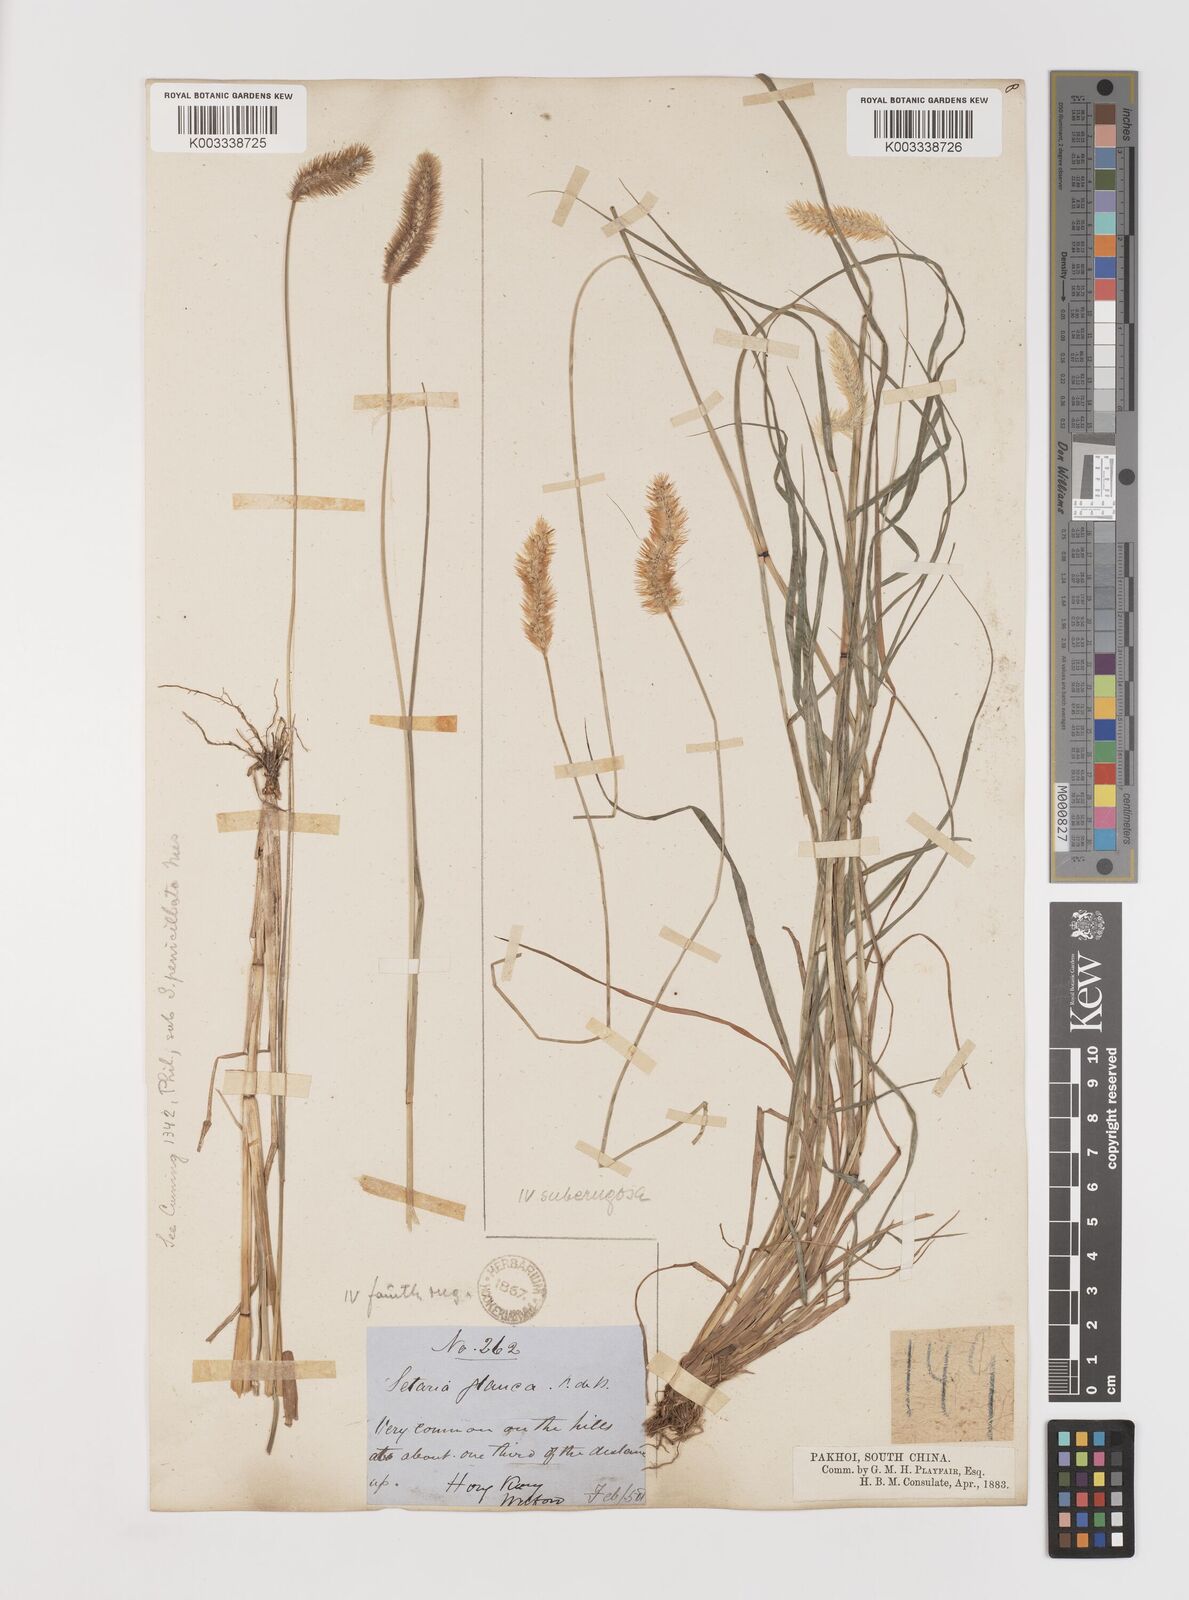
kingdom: Plantae
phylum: Tracheophyta
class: Liliopsida
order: Poales
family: Poaceae
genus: Setaria
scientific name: Setaria parviflora
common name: Knotroot bristle-grass
